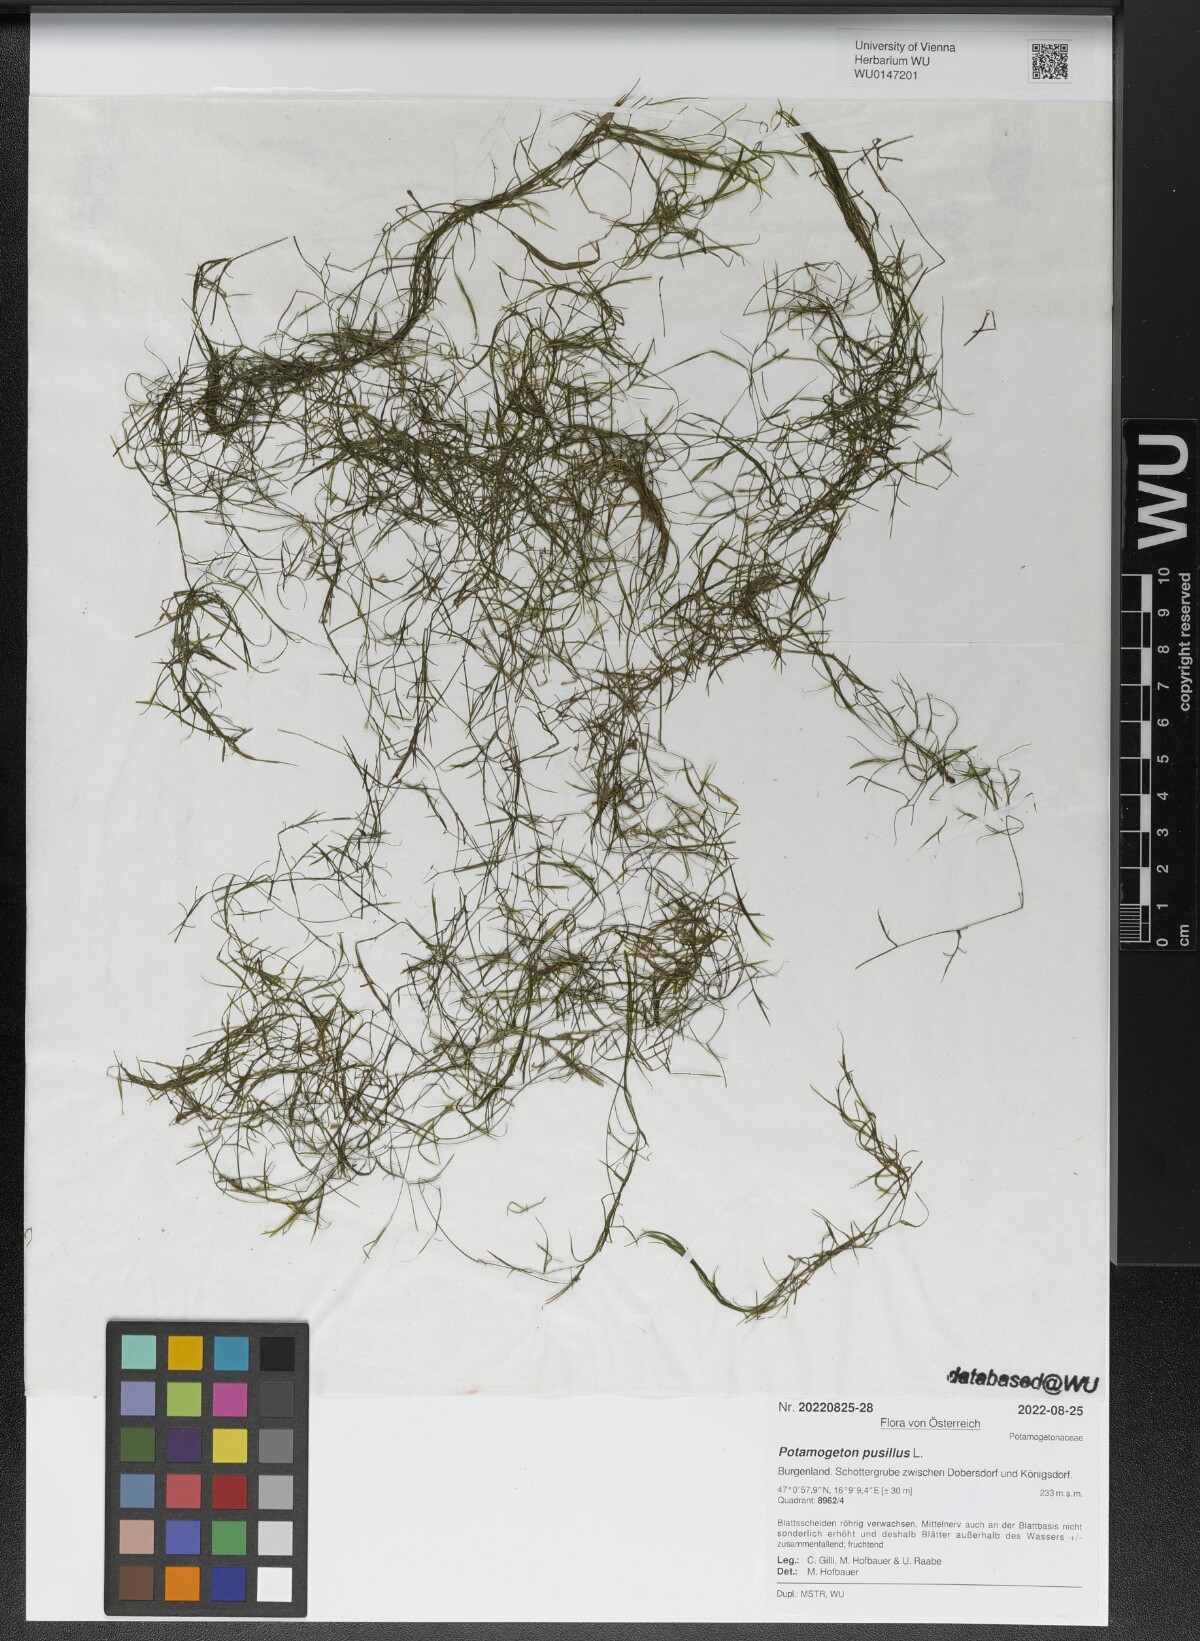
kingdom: Plantae
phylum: Tracheophyta
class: Liliopsida
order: Alismatales
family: Potamogetonaceae
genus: Potamogeton
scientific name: Potamogeton pusillus
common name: Lesser pondweed
